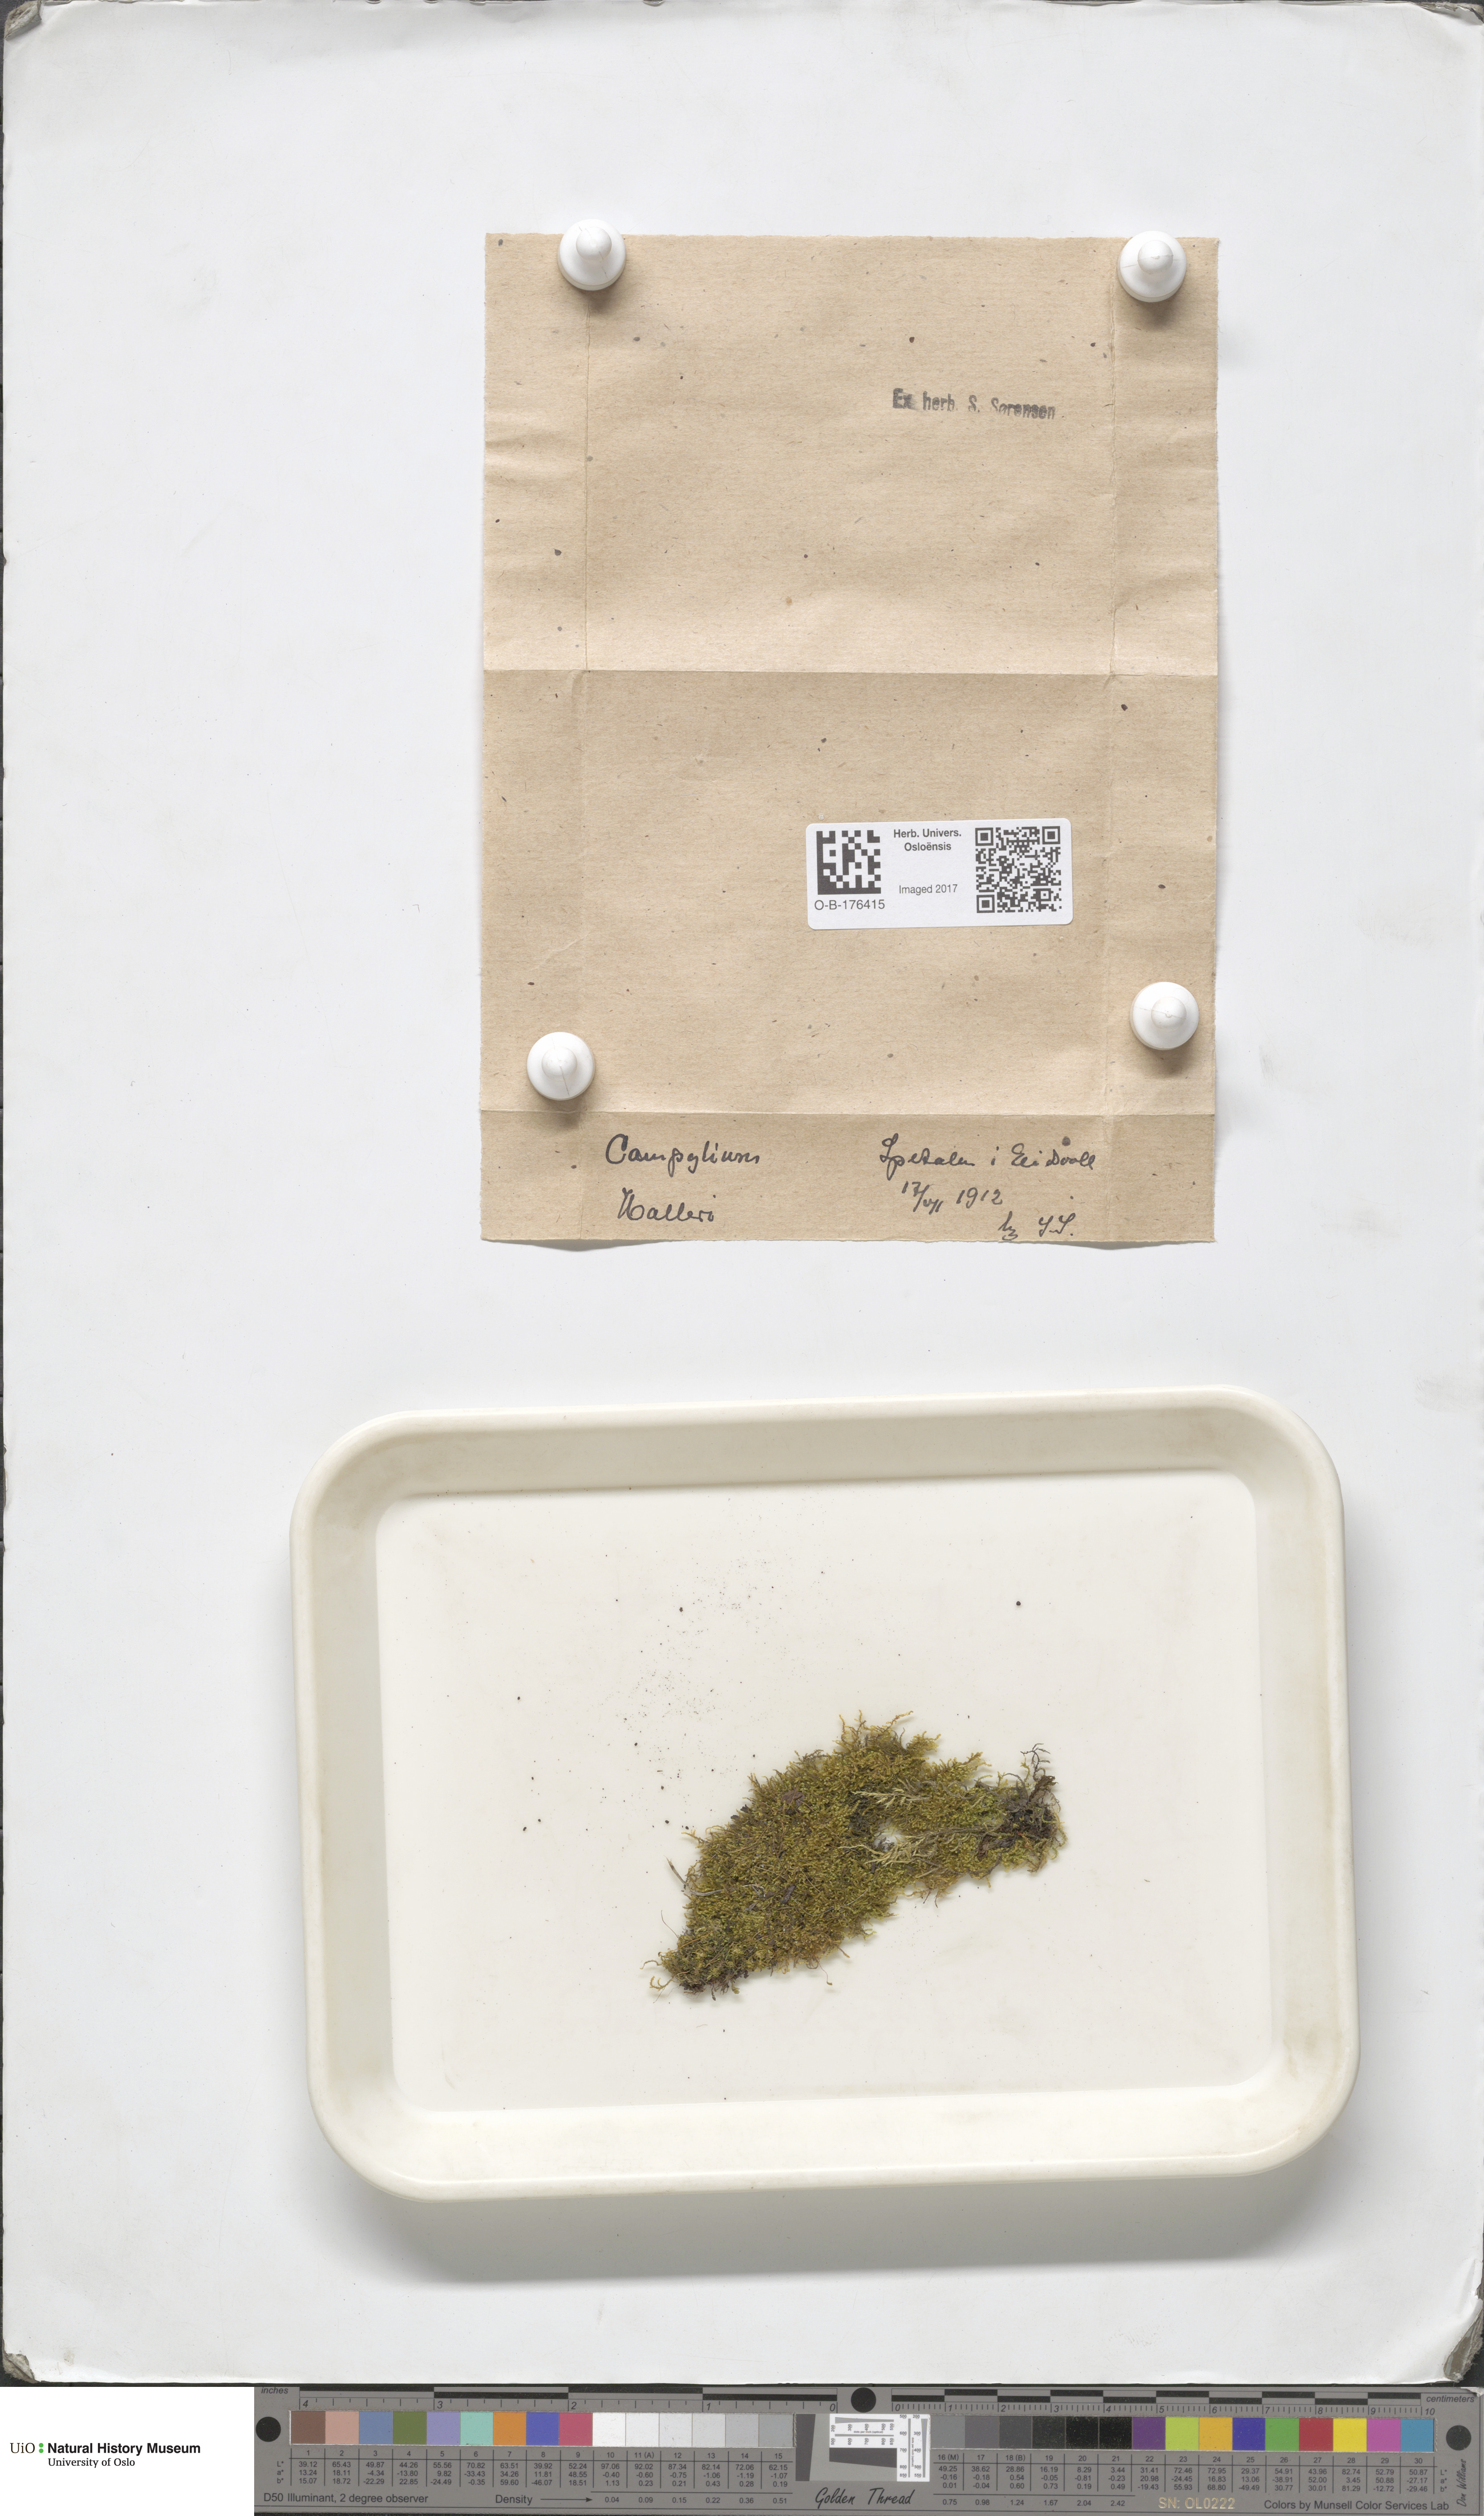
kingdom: Plantae
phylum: Bryophyta
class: Bryopsida
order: Hypnales
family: Amblystegiaceae
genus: Campylophyllum
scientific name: Campylophyllum halleri
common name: Haller's fine wet moss
